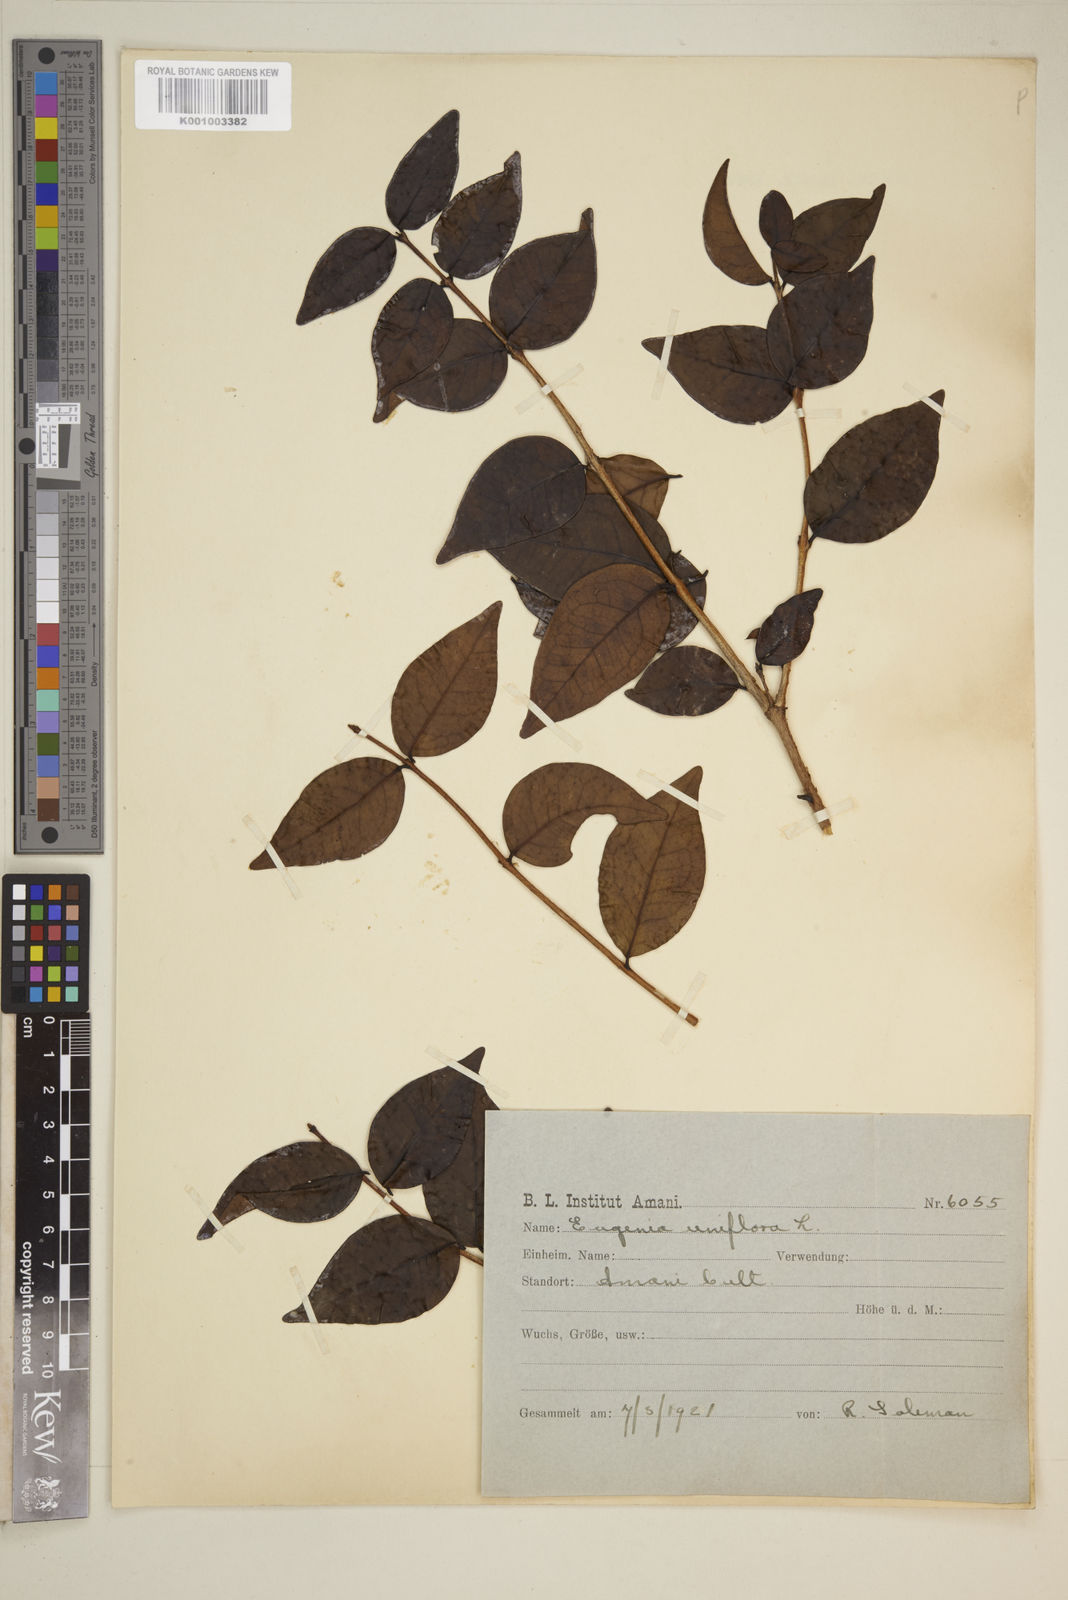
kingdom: Plantae
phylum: Tracheophyta
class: Magnoliopsida
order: Myrtales
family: Myrtaceae
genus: Eugenia
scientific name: Eugenia uniflora
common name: Surinam cherry
